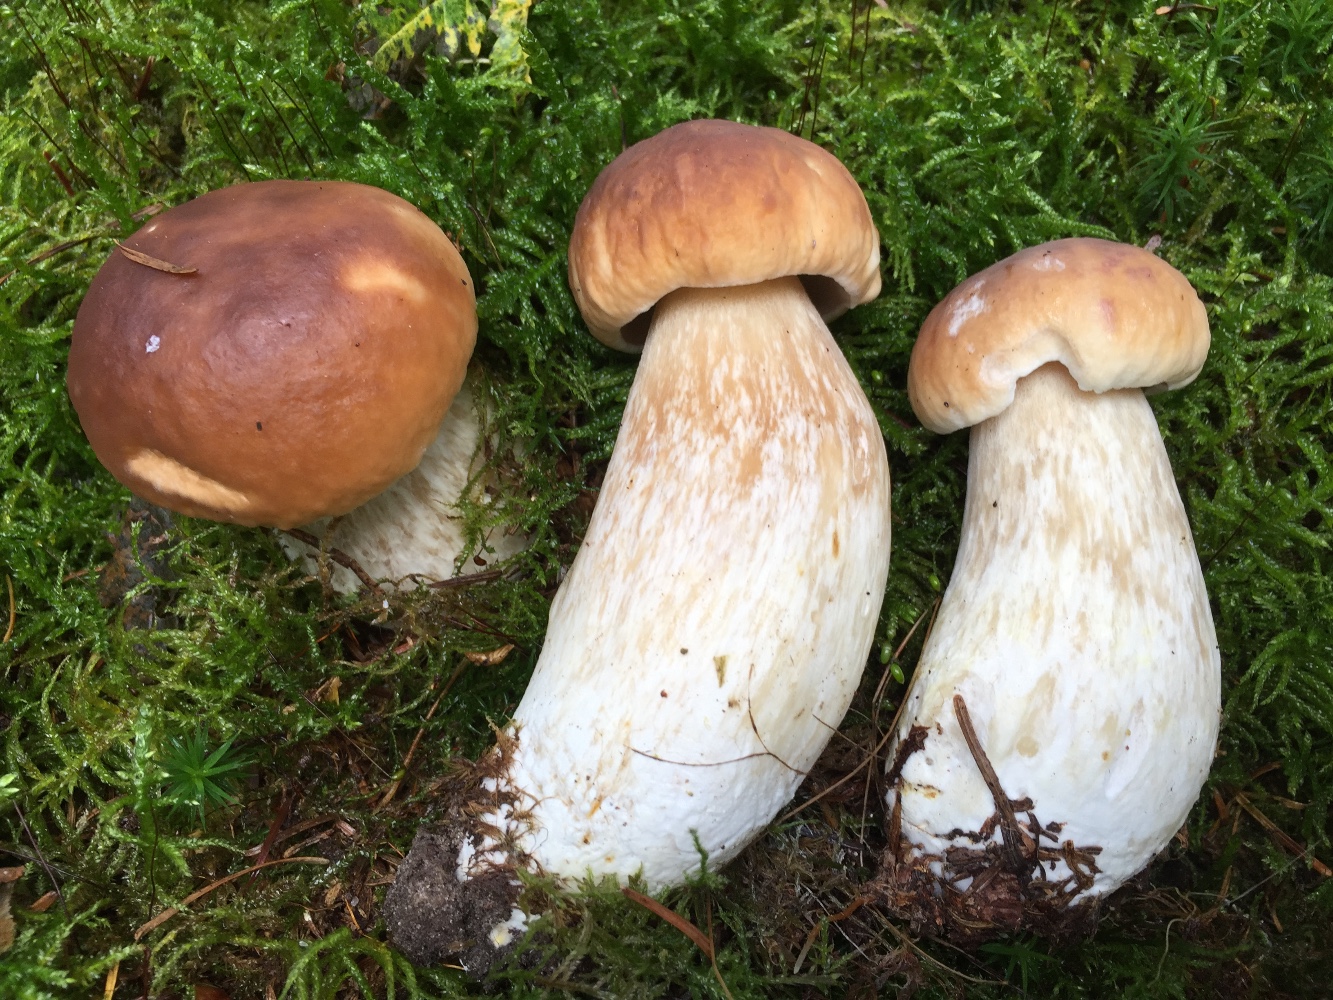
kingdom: Fungi
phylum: Basidiomycota
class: Agaricomycetes
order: Boletales
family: Boletaceae
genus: Boletus
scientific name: Boletus edulis
